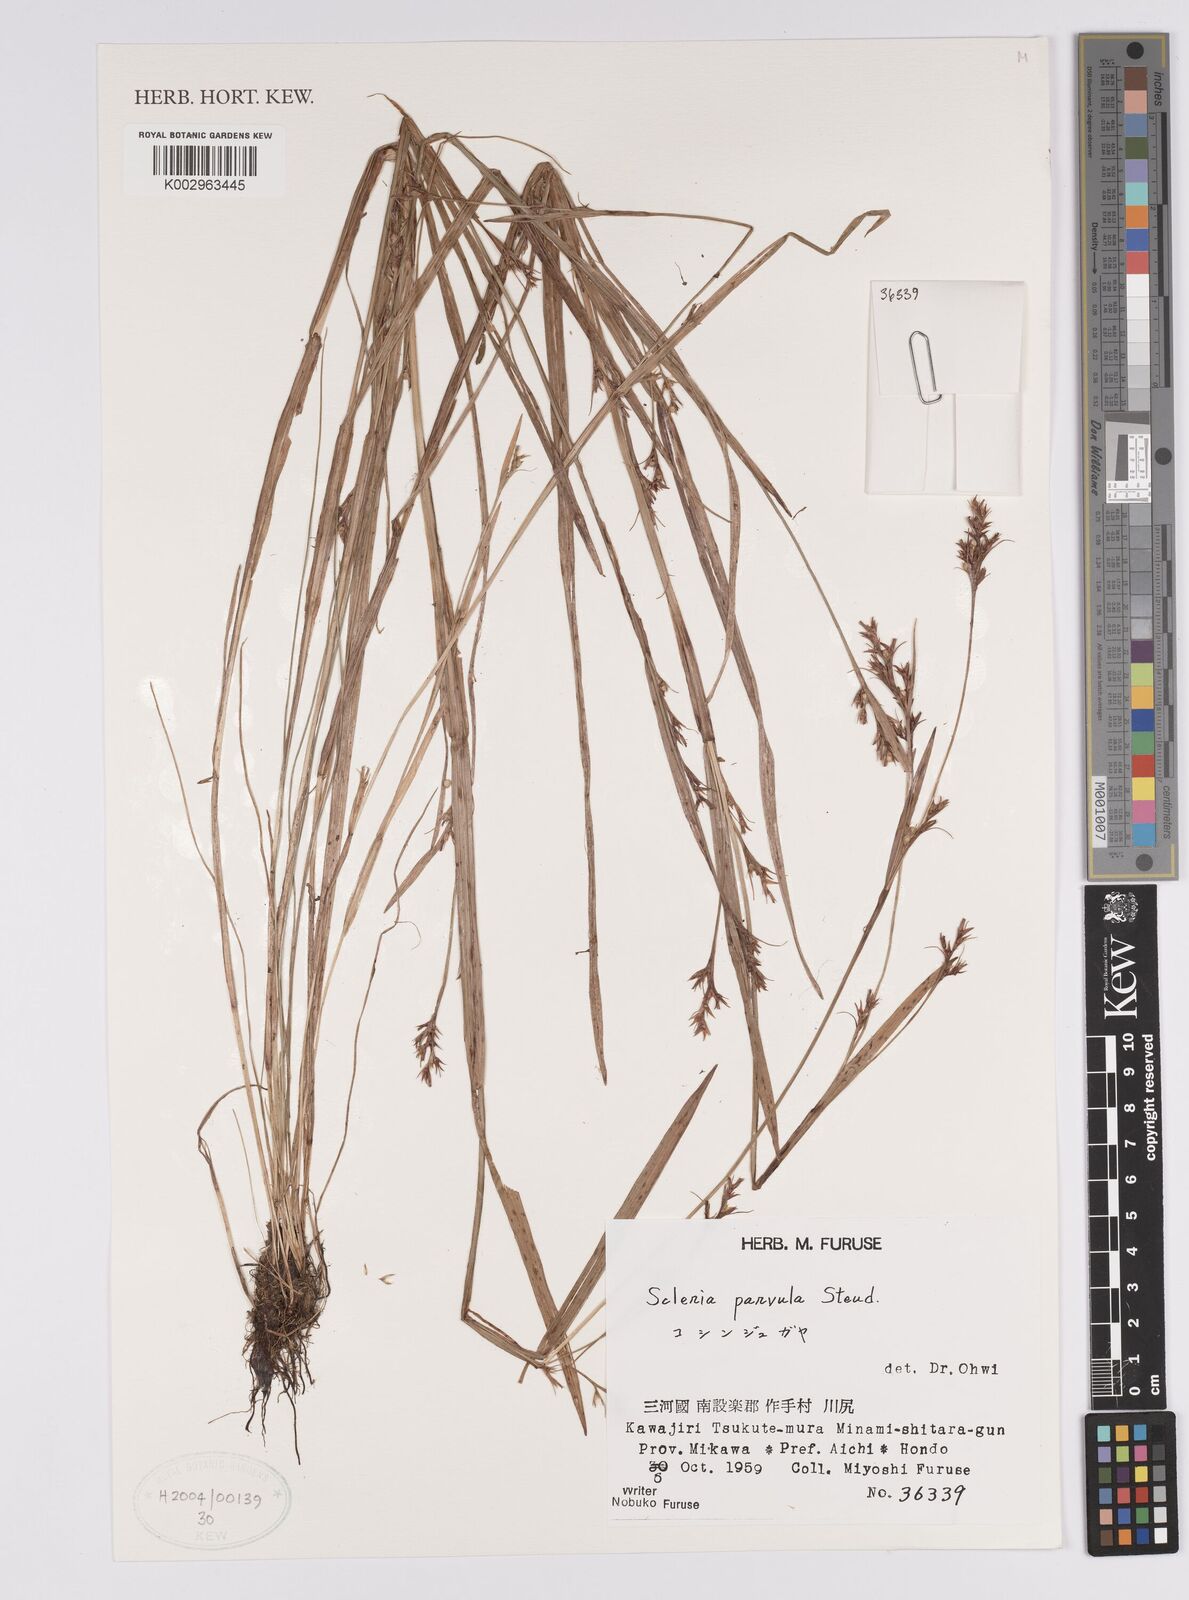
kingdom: Plantae
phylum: Tracheophyta
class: Liliopsida
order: Poales
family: Cyperaceae
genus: Scleria
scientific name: Scleria parvula
